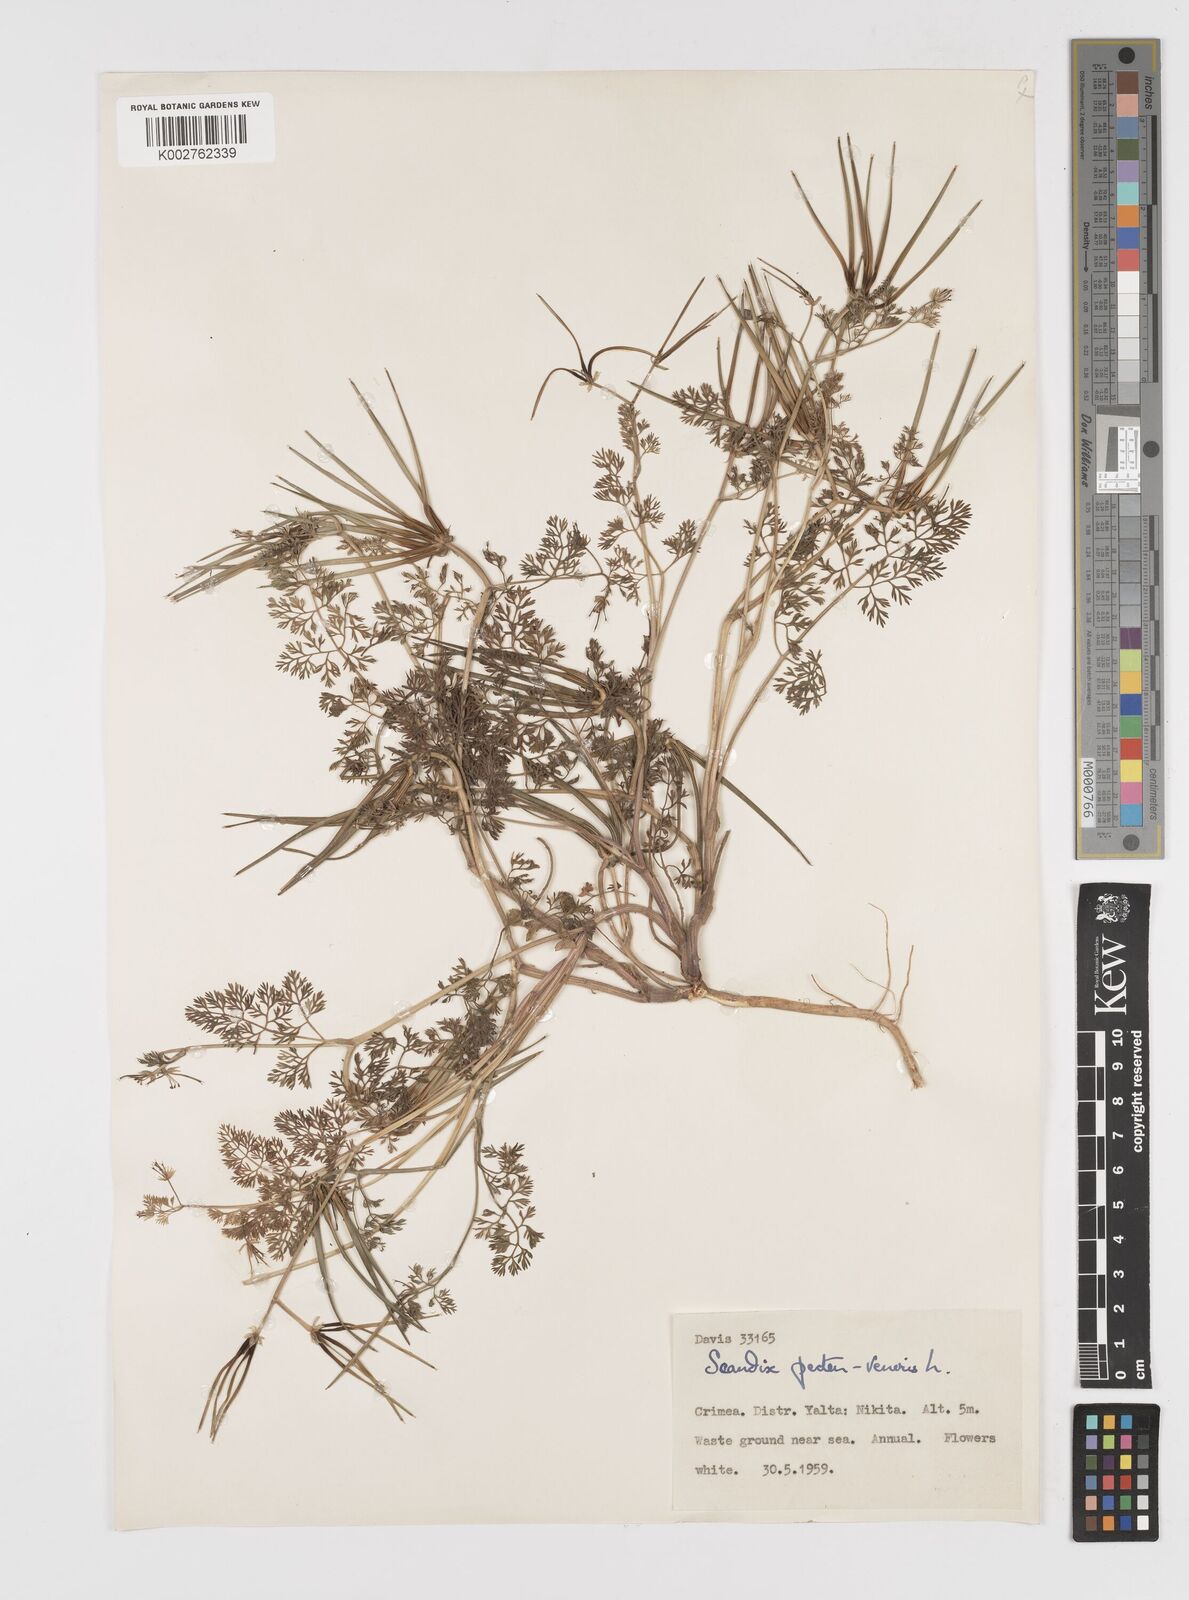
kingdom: Plantae
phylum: Tracheophyta
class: Magnoliopsida
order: Apiales
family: Apiaceae
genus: Scandix
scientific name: Scandix pecten-veneris
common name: Shepherd's-needle
